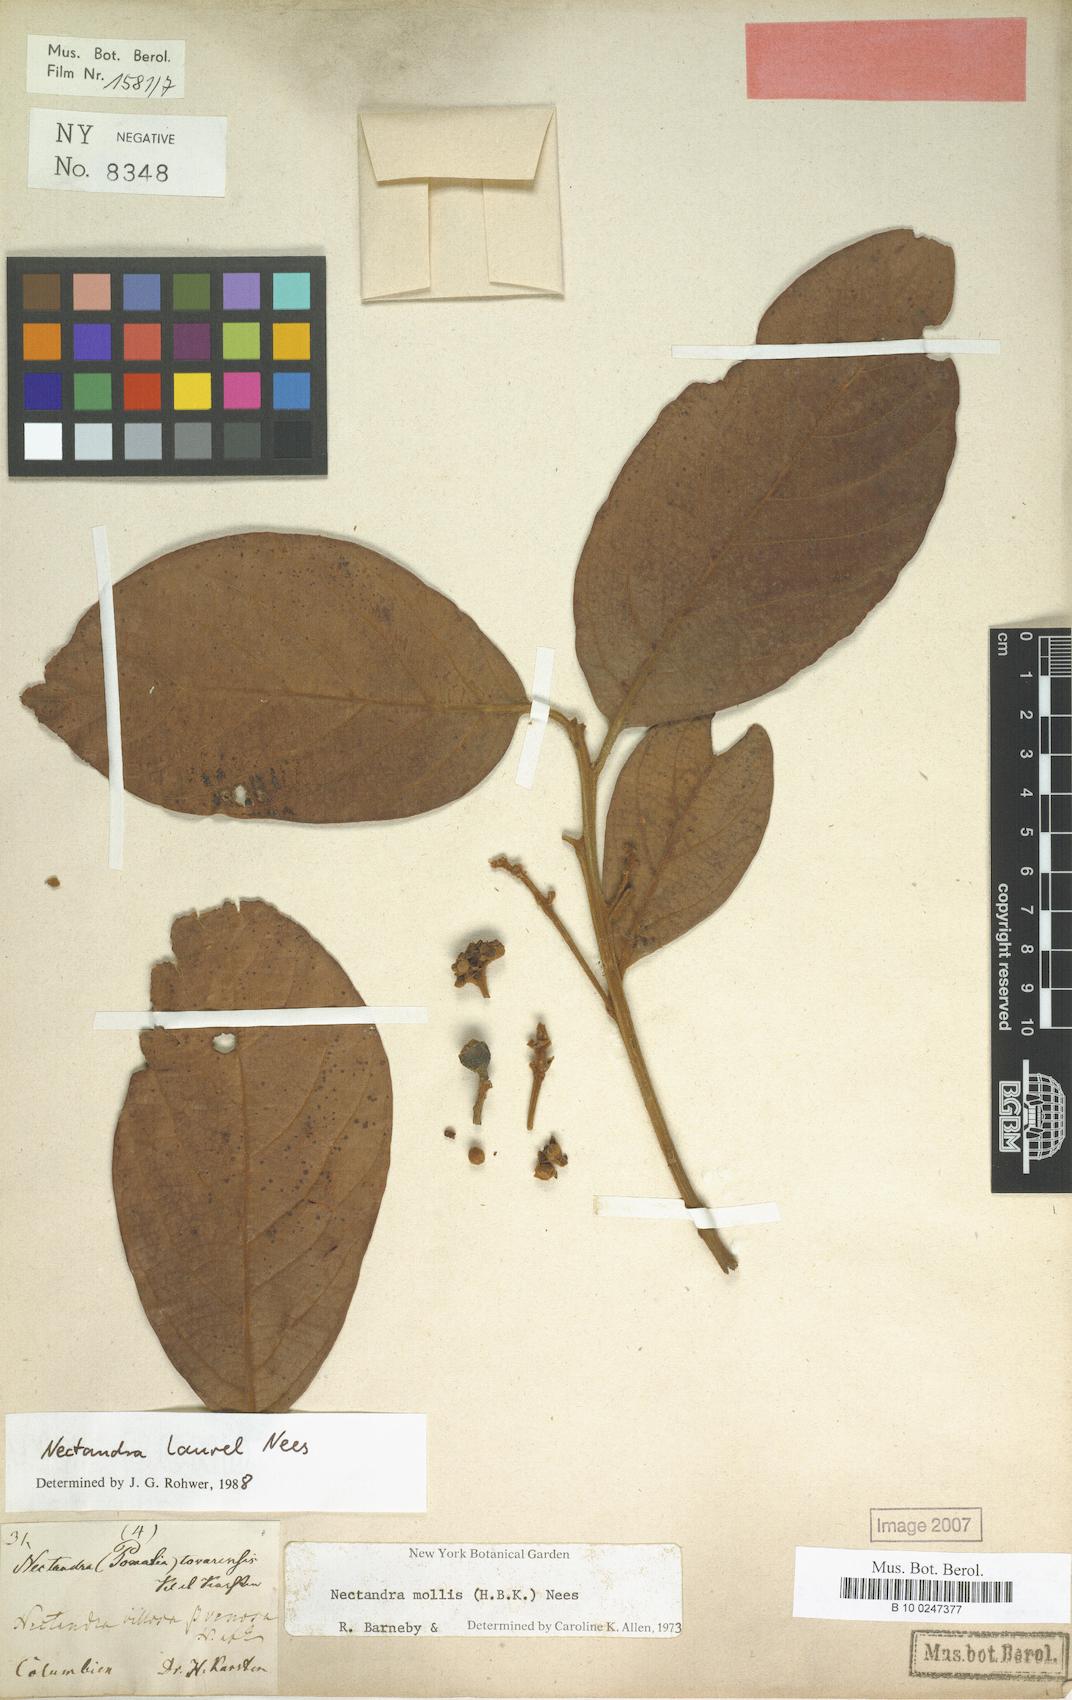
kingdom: Plantae
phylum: Tracheophyta
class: Magnoliopsida
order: Laurales
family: Lauraceae
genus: Nectandra
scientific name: Nectandra laurel
